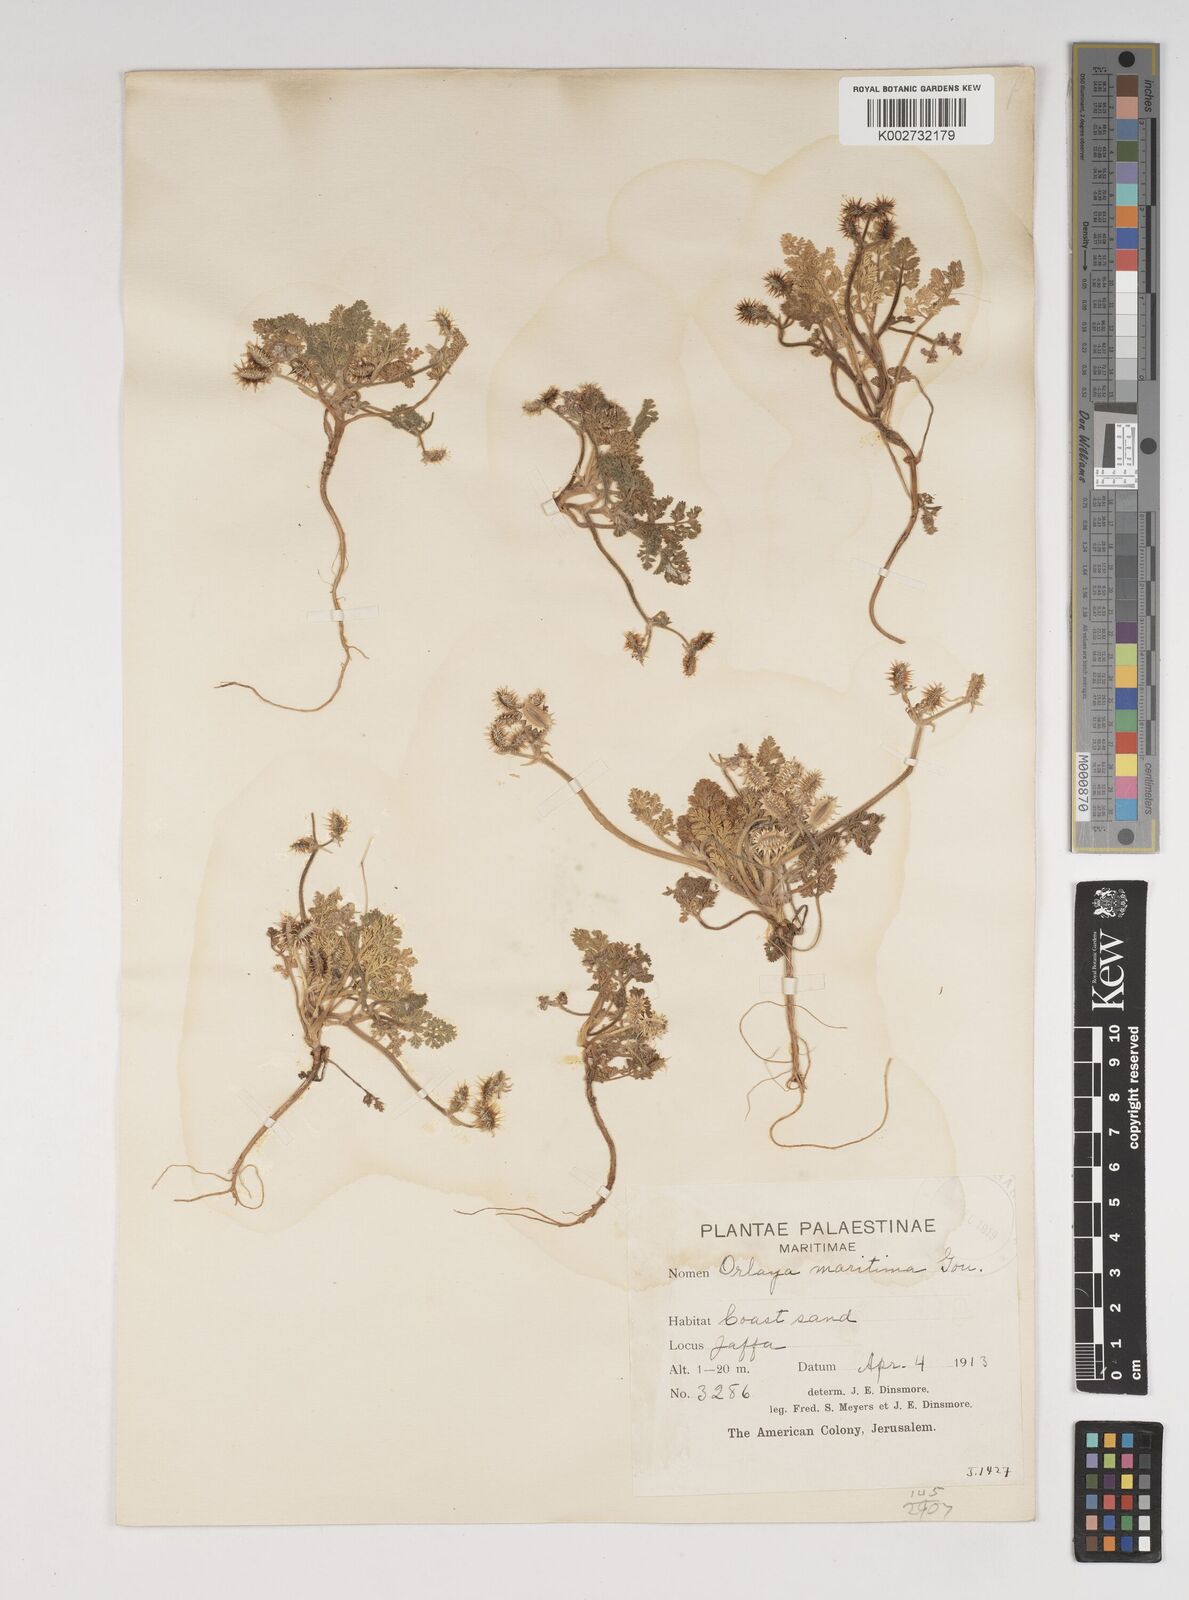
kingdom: Plantae
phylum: Tracheophyta
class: Magnoliopsida
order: Apiales
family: Apiaceae
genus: Daucus
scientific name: Daucus pumilus
